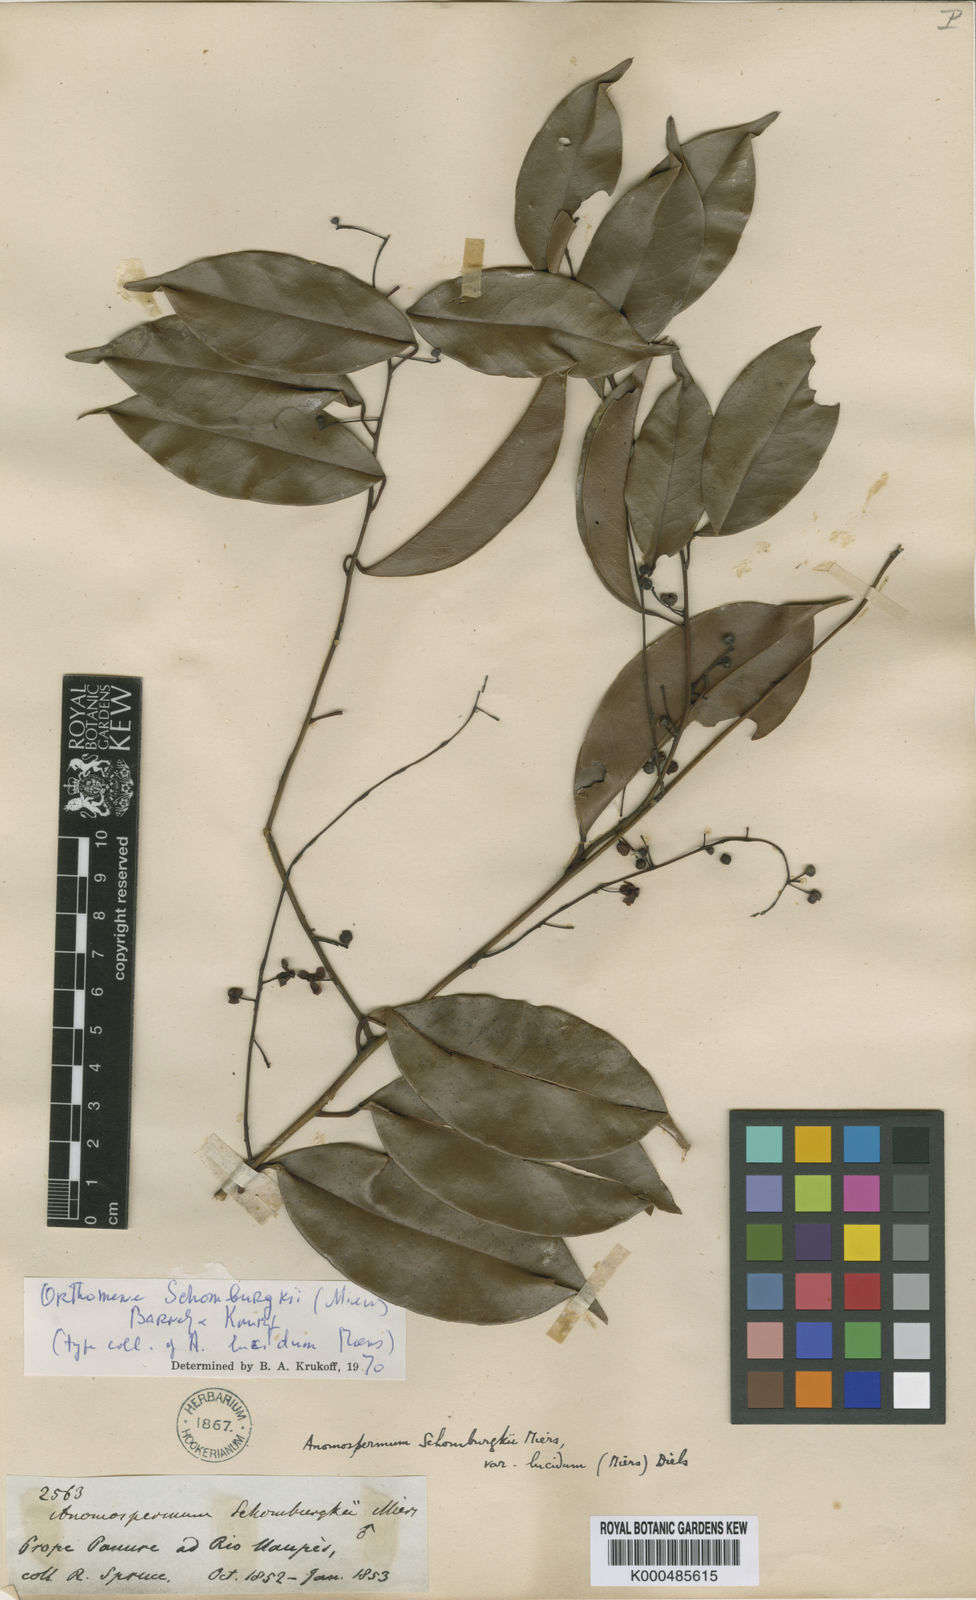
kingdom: Plantae
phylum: Tracheophyta
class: Magnoliopsida
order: Ranunculales
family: Menispermaceae
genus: Orthomene
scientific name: Orthomene schomburgkii
